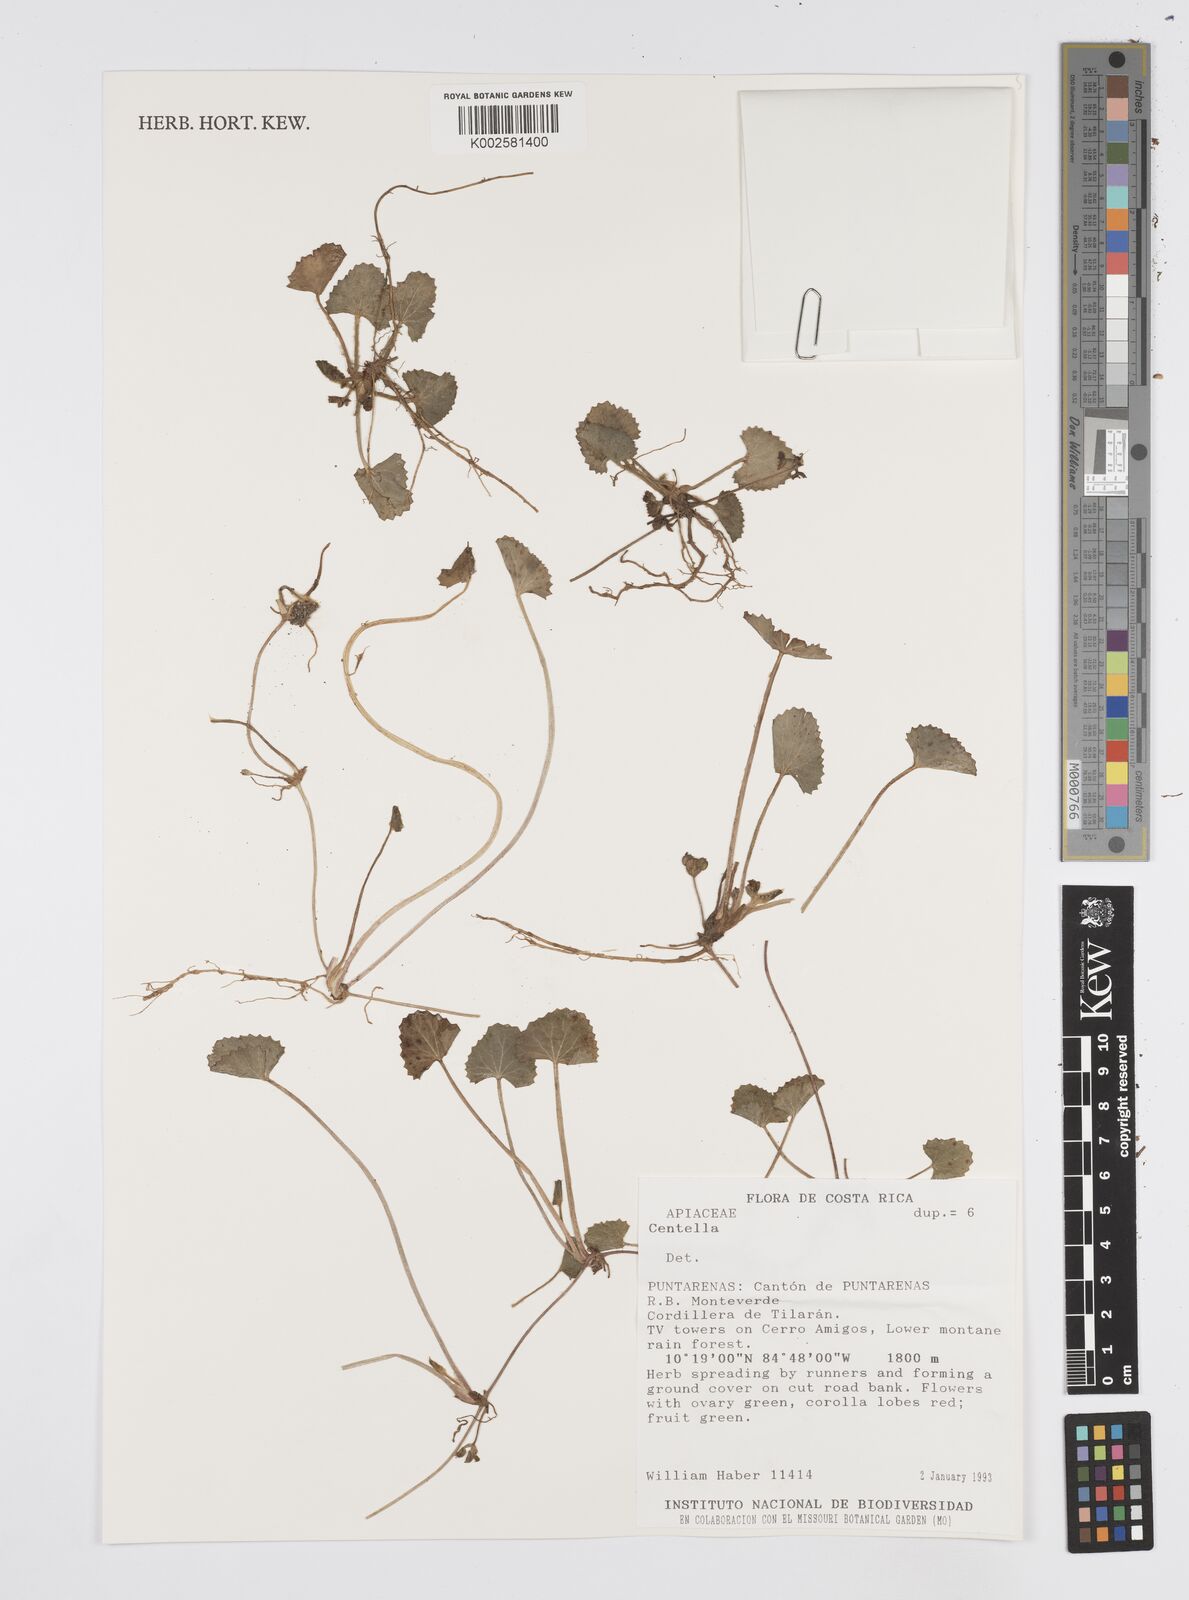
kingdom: Plantae
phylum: Tracheophyta
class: Magnoliopsida
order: Apiales
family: Apiaceae
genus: Centella
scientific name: Centella
